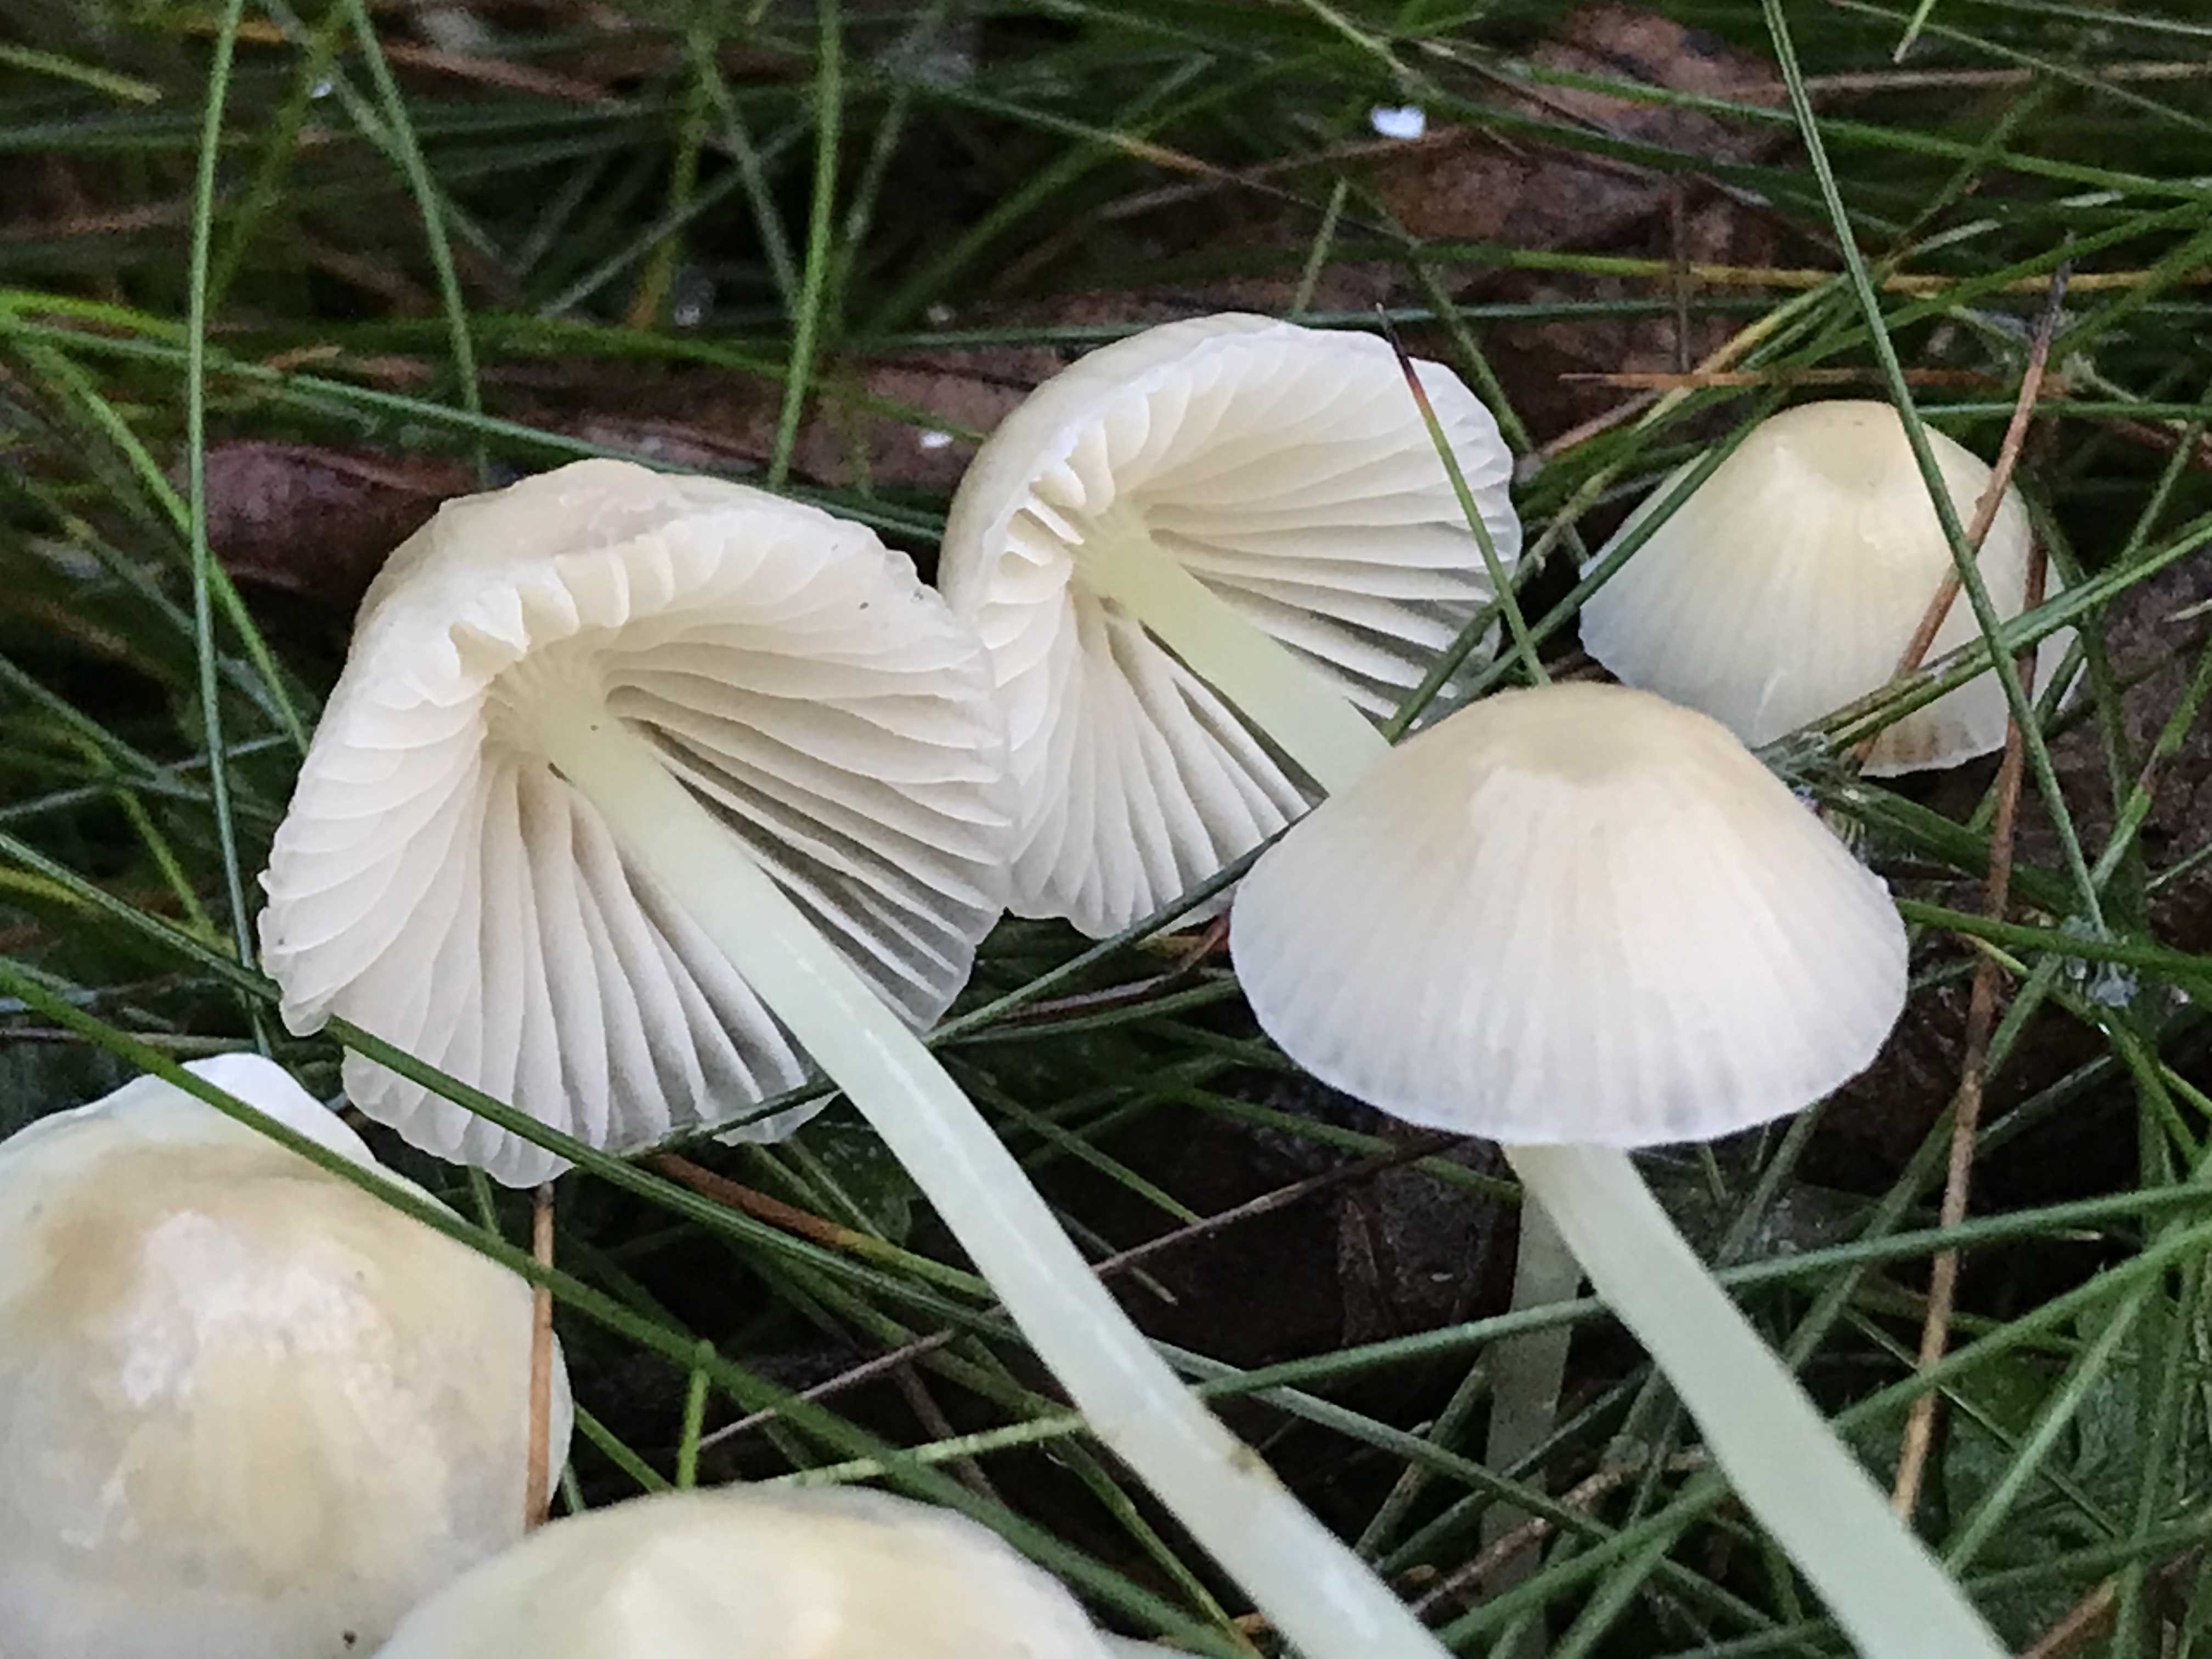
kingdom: Fungi
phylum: Basidiomycota
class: Agaricomycetes
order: Agaricales
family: Mycenaceae
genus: Mycena
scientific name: Mycena epipterygia
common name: gulstokket huesvamp
